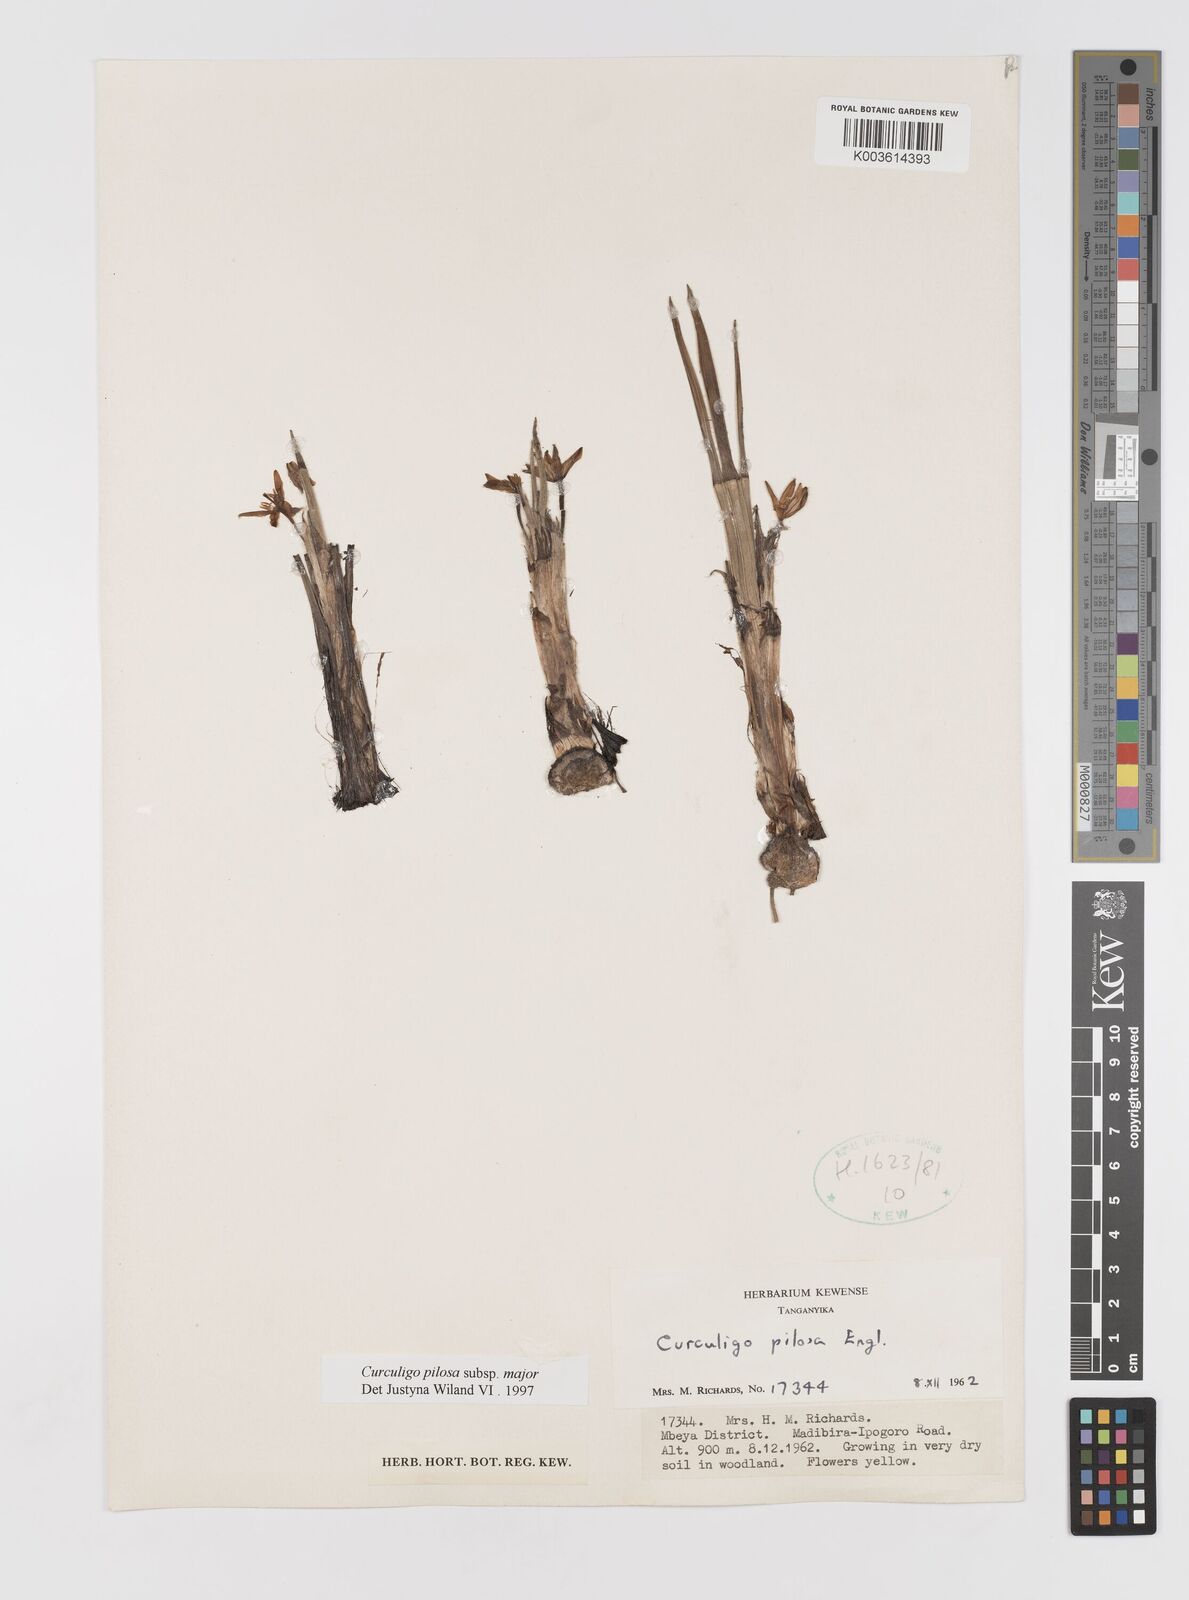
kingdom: Plantae
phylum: Tracheophyta
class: Liliopsida
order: Asparagales
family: Hypoxidaceae
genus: Curculigo
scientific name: Curculigo pilosa
